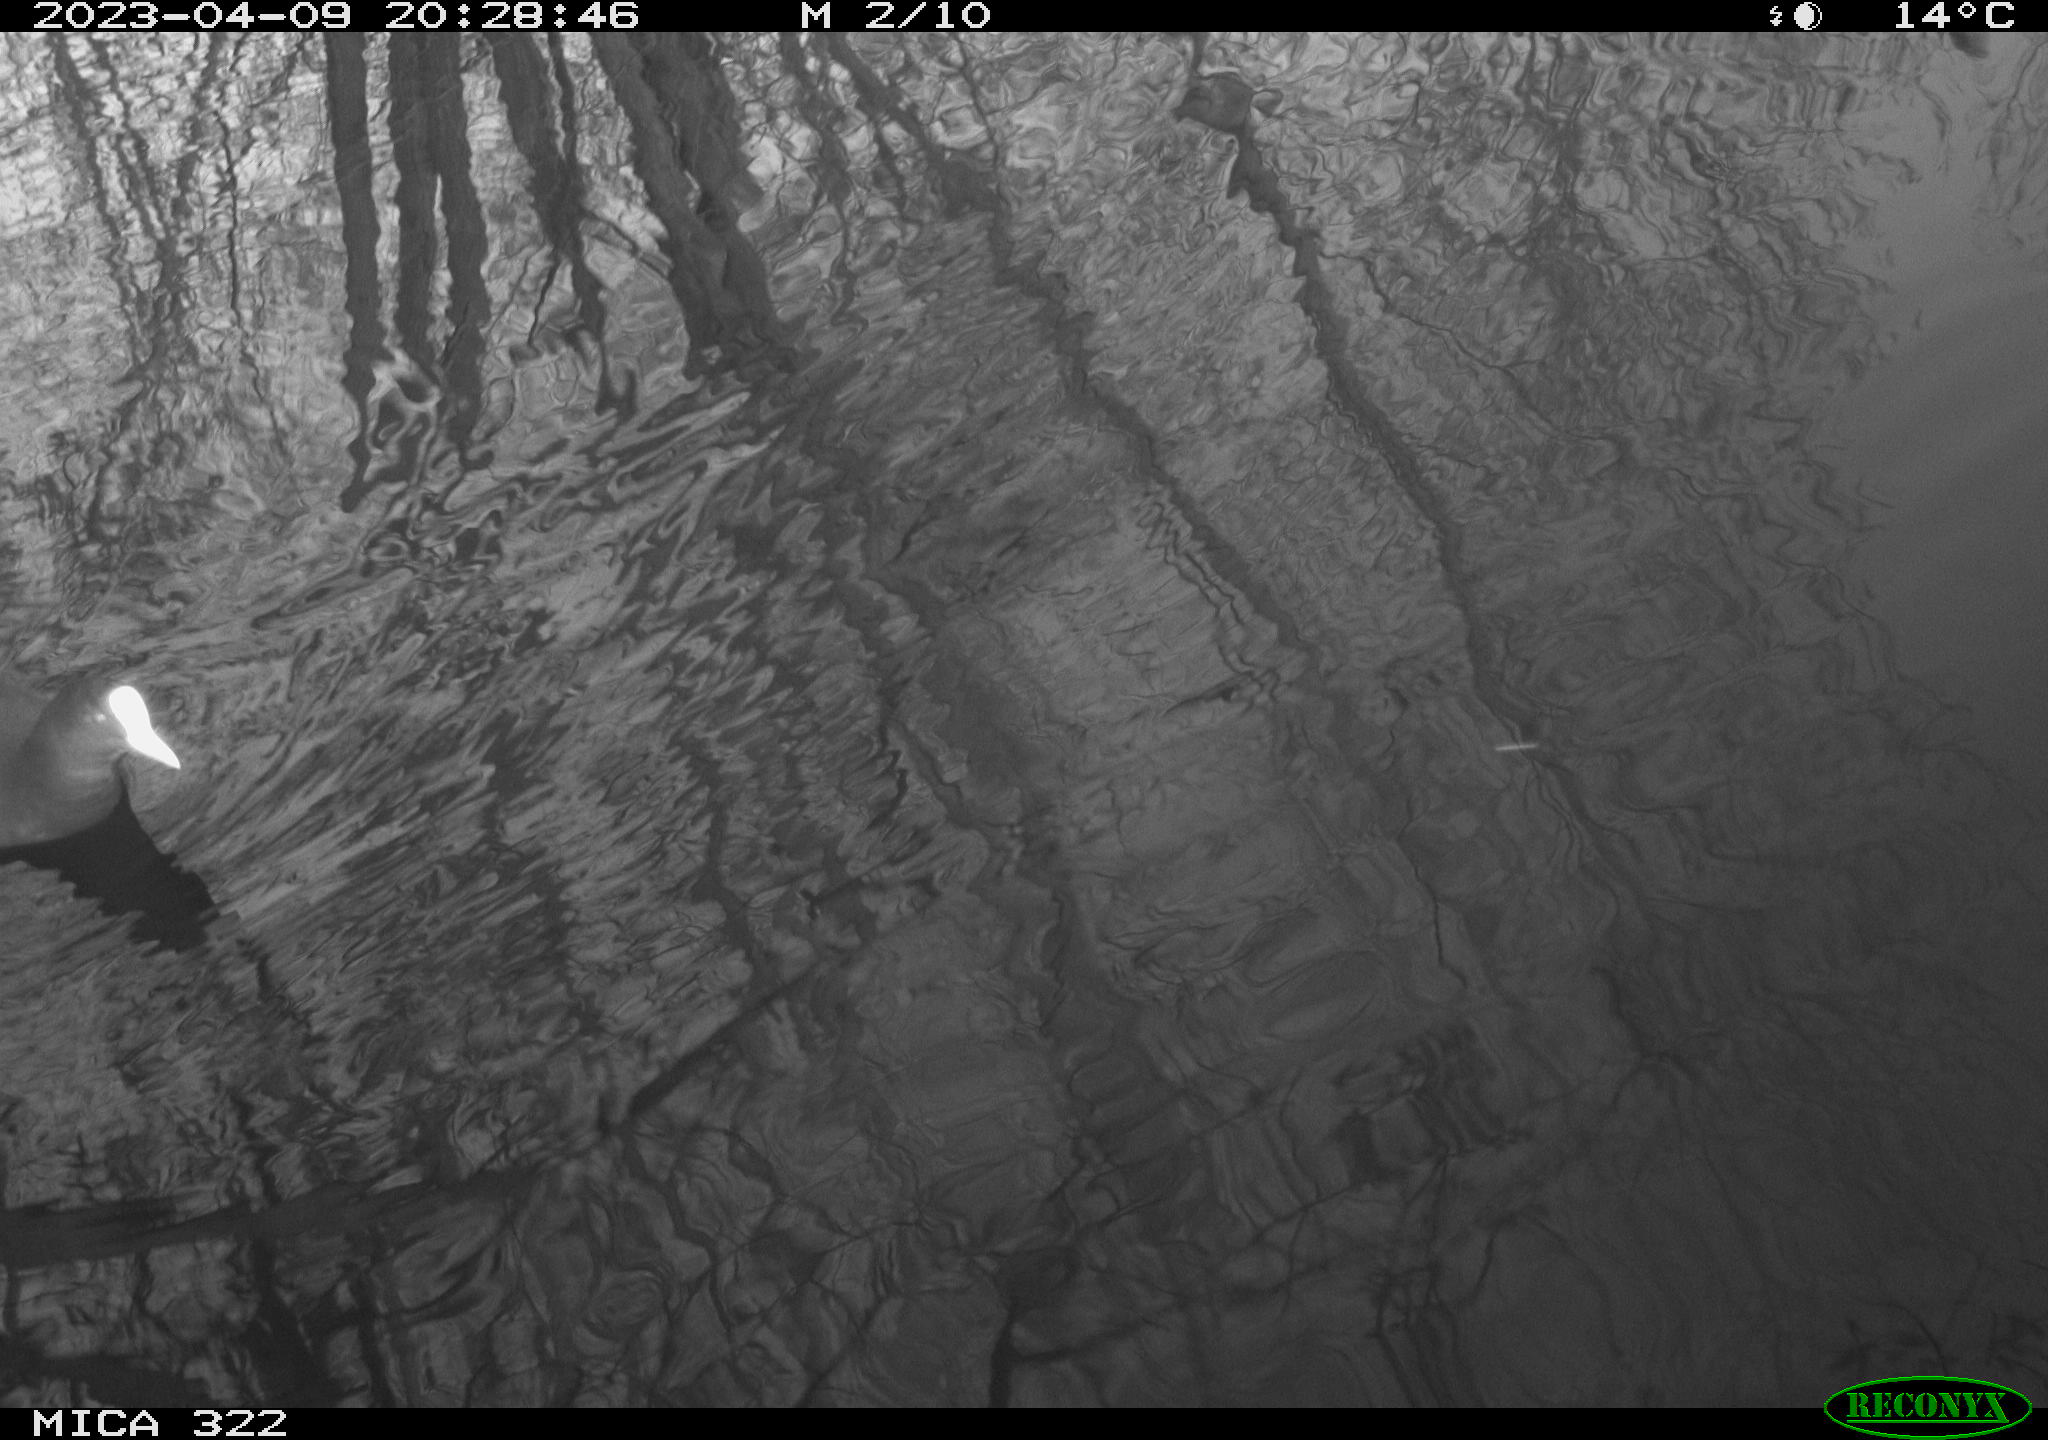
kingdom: Animalia
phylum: Chordata
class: Aves
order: Gruiformes
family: Rallidae
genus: Fulica
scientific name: Fulica atra
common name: Eurasian coot
